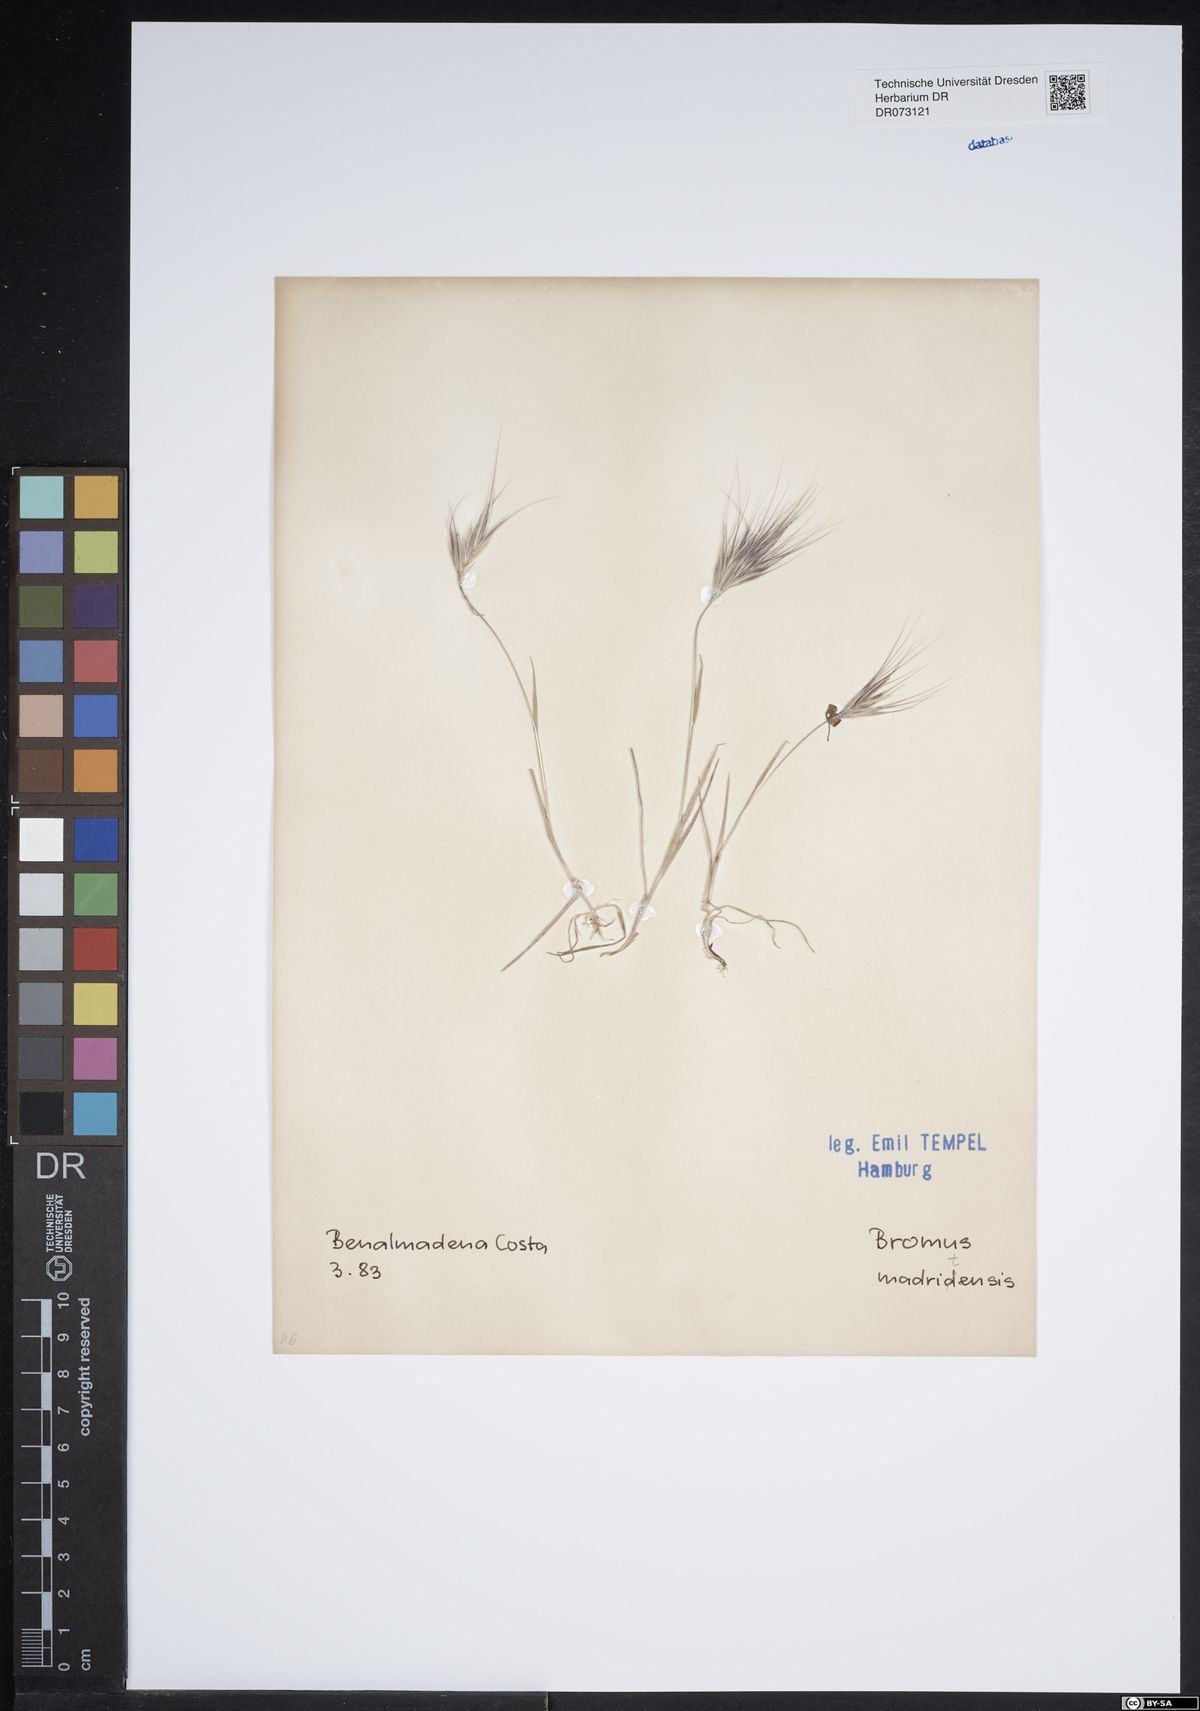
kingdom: Plantae
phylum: Tracheophyta
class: Liliopsida
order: Poales
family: Poaceae
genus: Bromus
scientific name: Bromus madritensis
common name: Compact brome
